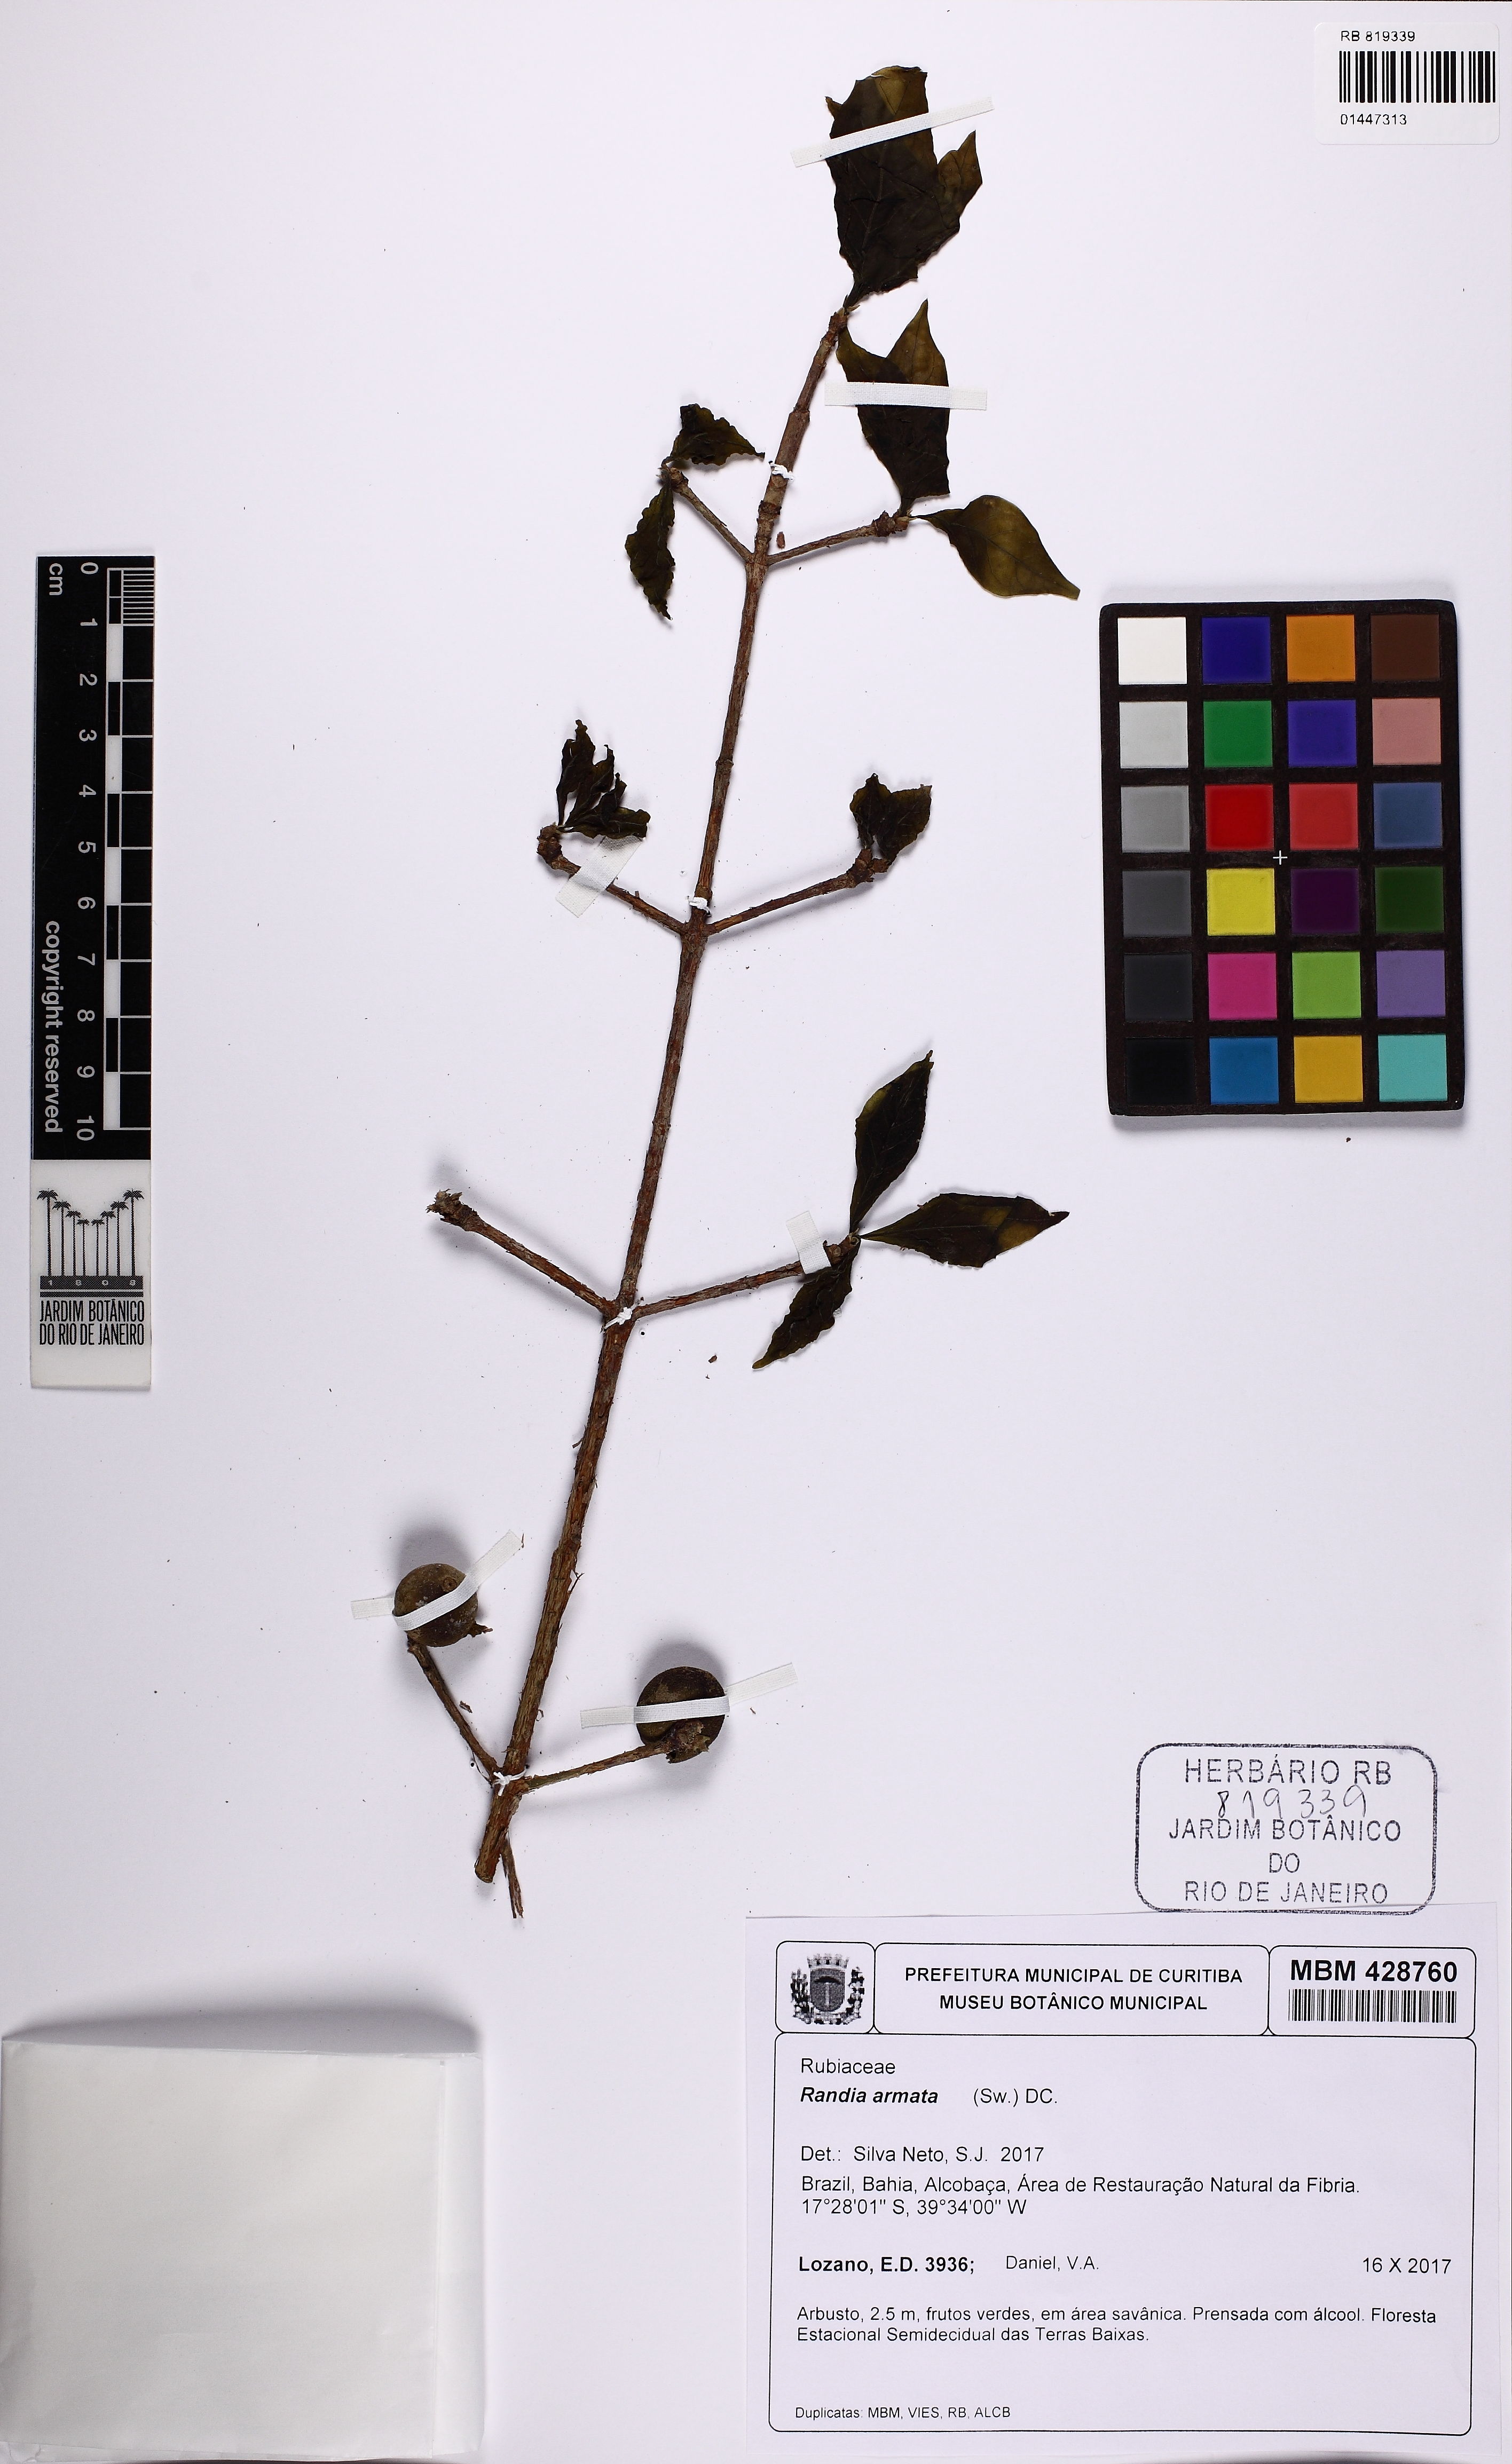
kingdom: Plantae
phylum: Tracheophyta
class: Magnoliopsida
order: Gentianales
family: Rubiaceae
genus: Randia
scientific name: Randia armata
